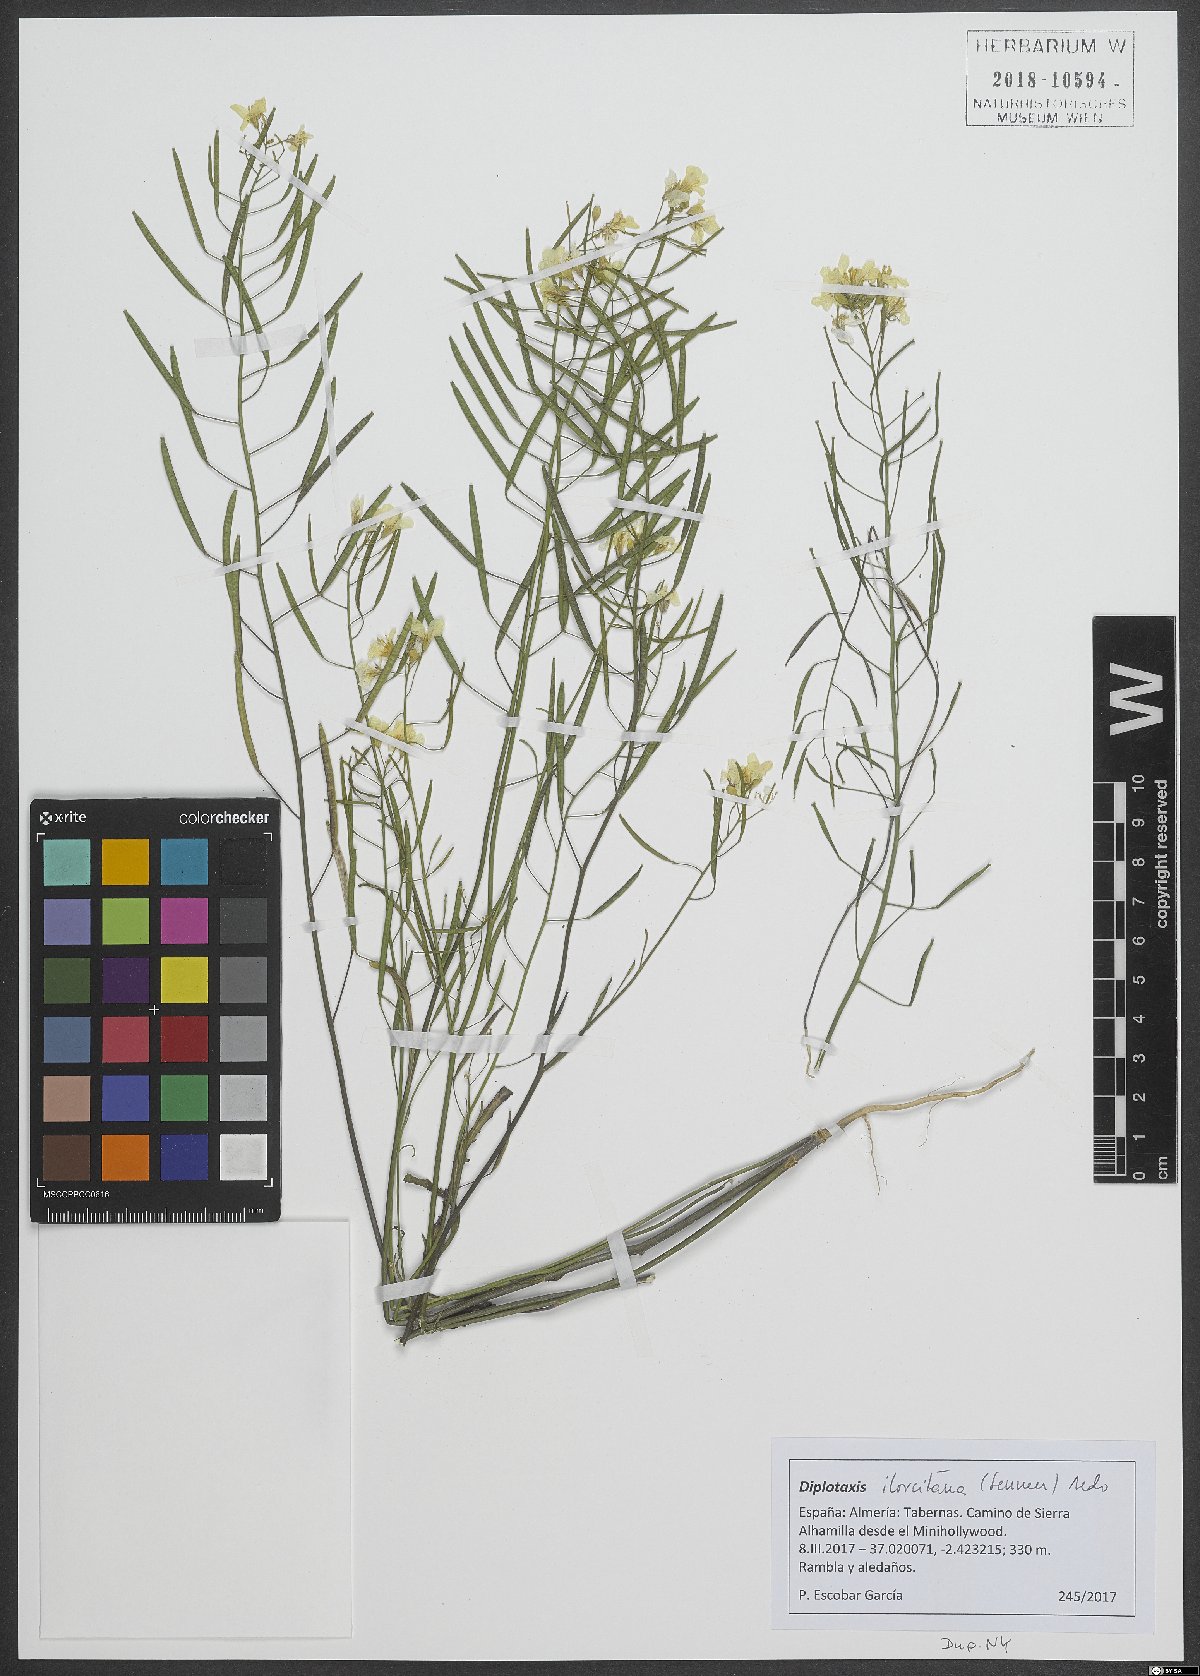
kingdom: Plantae
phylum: Tracheophyta
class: Magnoliopsida
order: Brassicales
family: Brassicaceae
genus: Diplotaxis
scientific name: Diplotaxis ilorcitana
